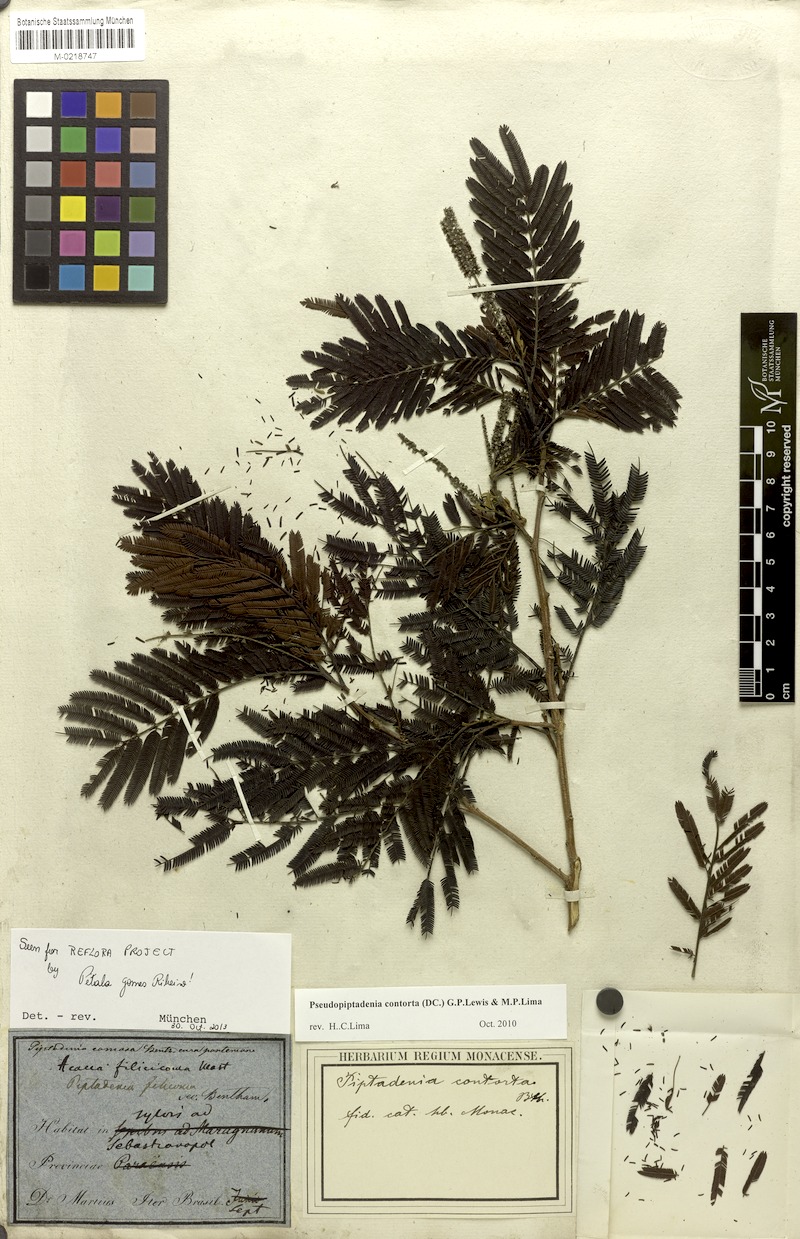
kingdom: Plantae
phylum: Tracheophyta
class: Magnoliopsida
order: Fabales
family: Fabaceae
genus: Pseudopiptadenia
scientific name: Pseudopiptadenia contorta
